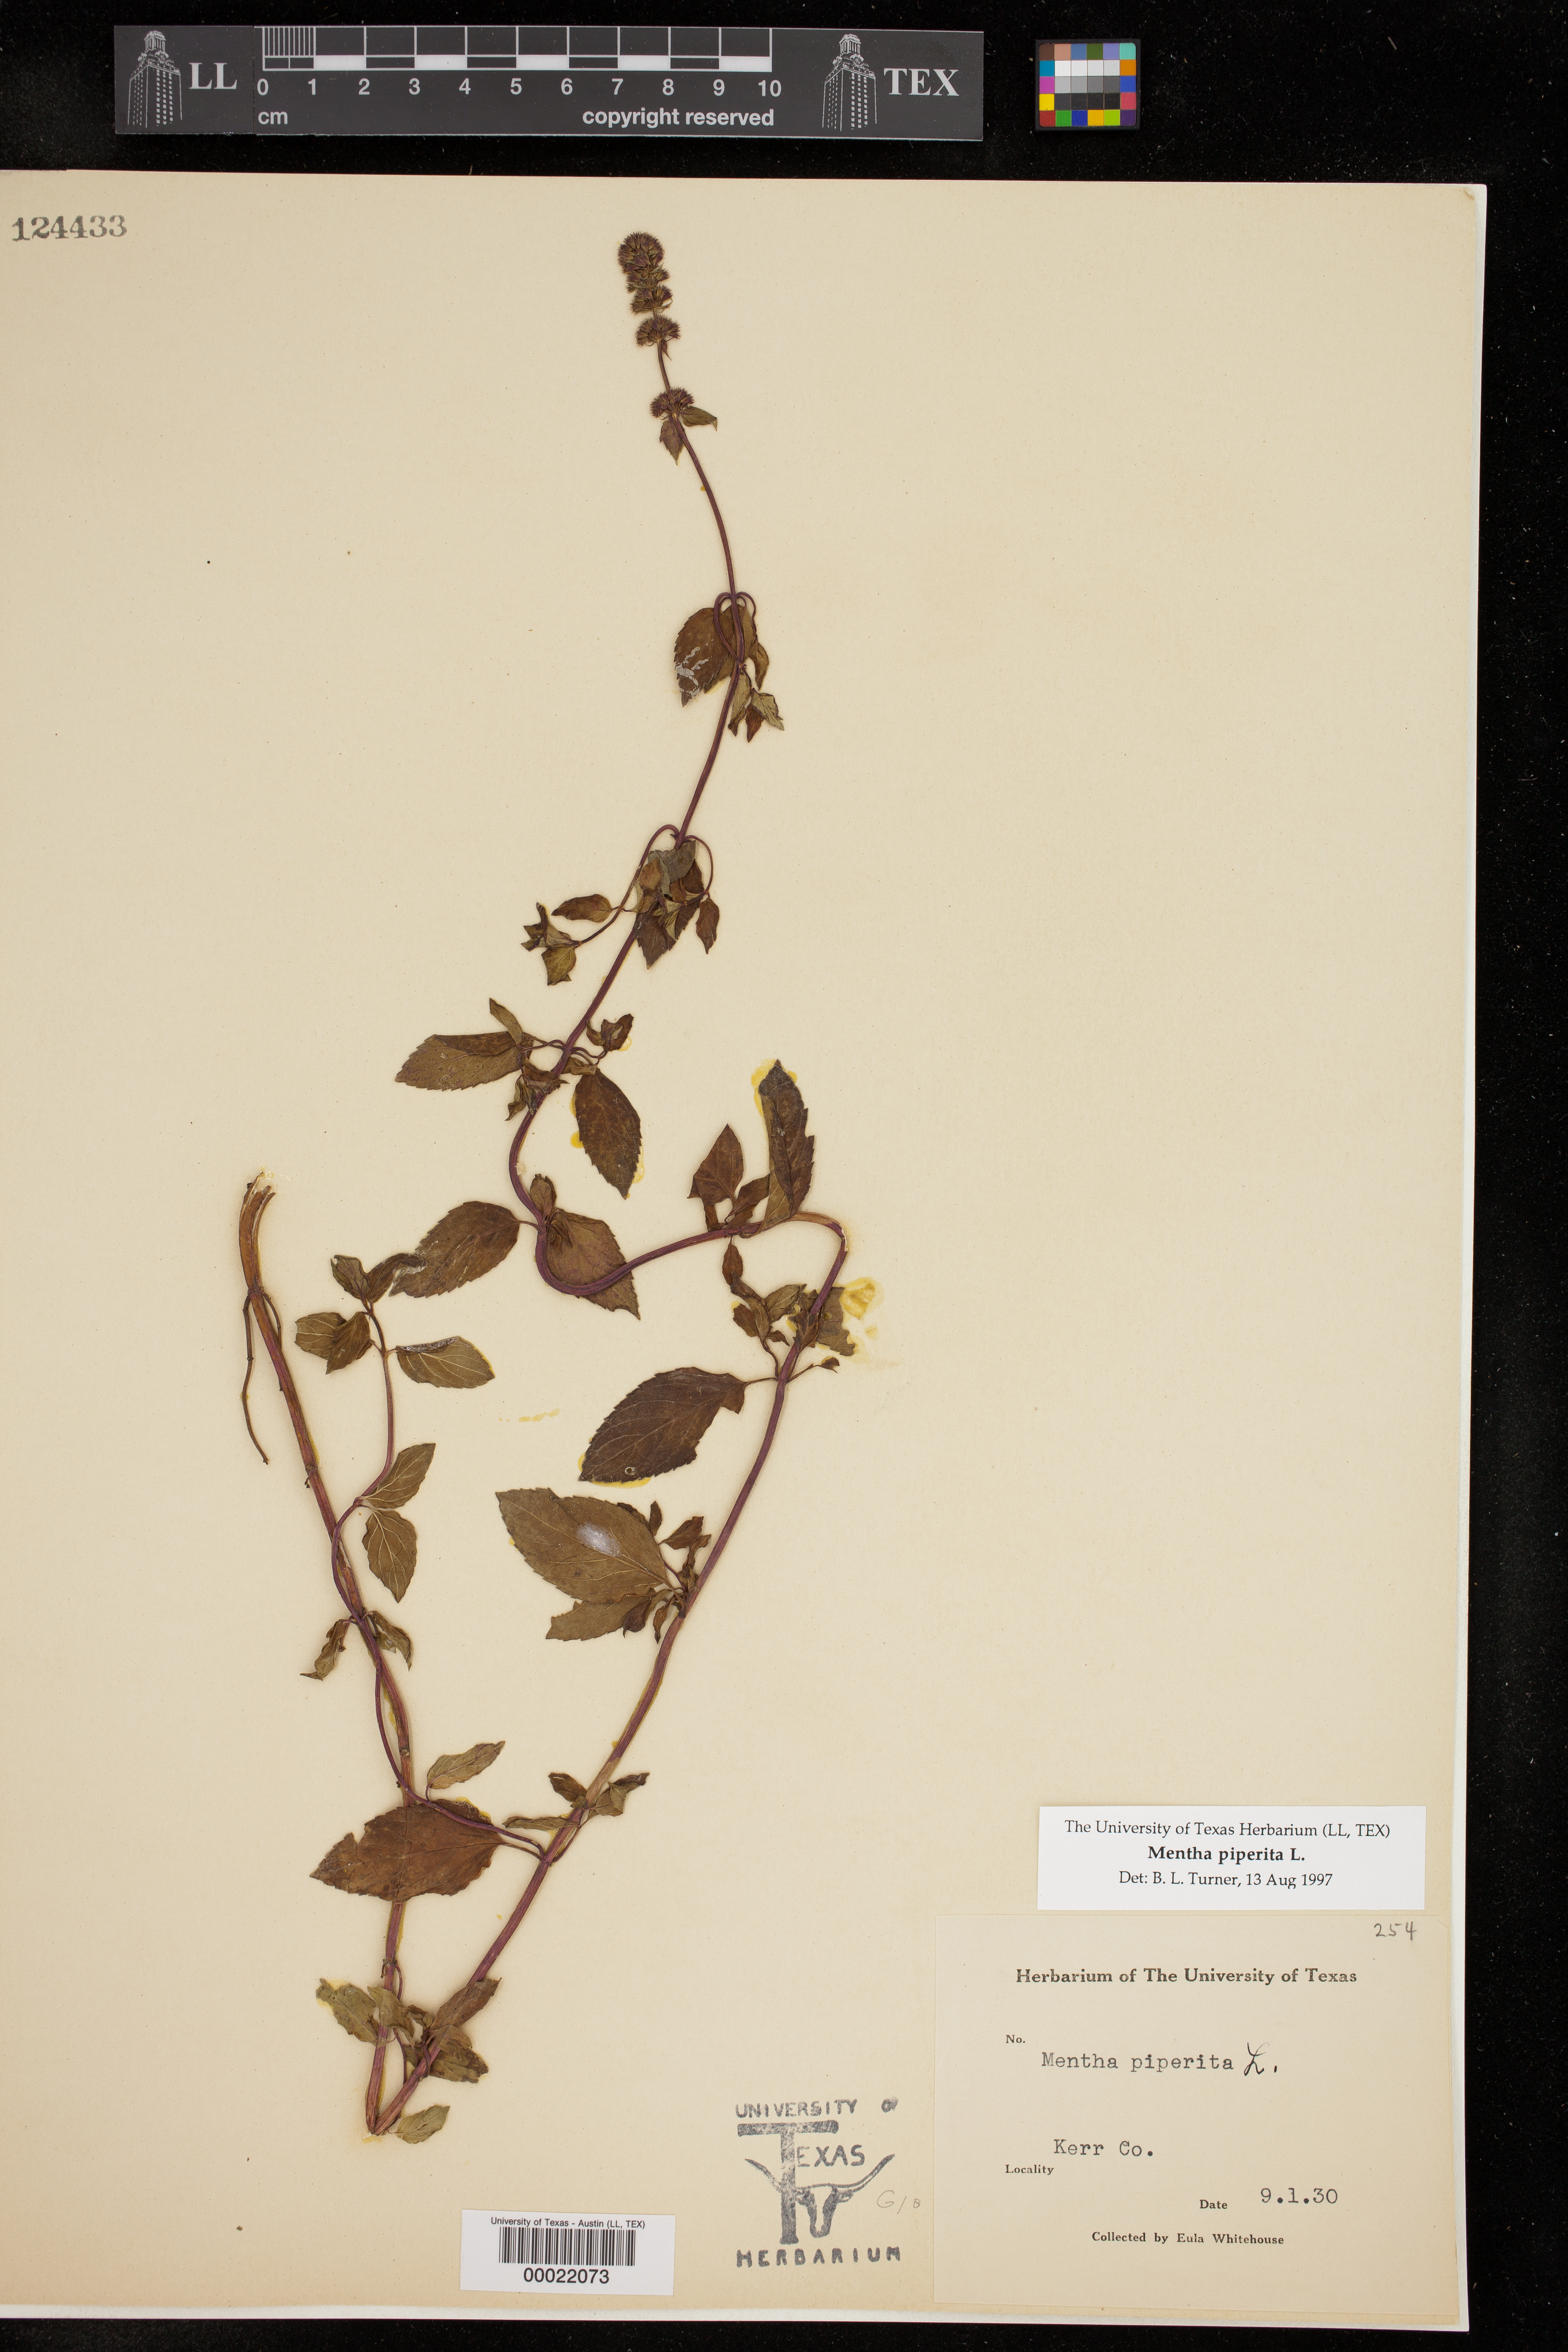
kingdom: Plantae
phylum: Tracheophyta
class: Magnoliopsida
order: Lamiales
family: Lamiaceae
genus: Mentha
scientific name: Mentha piperita
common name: Peppermint
